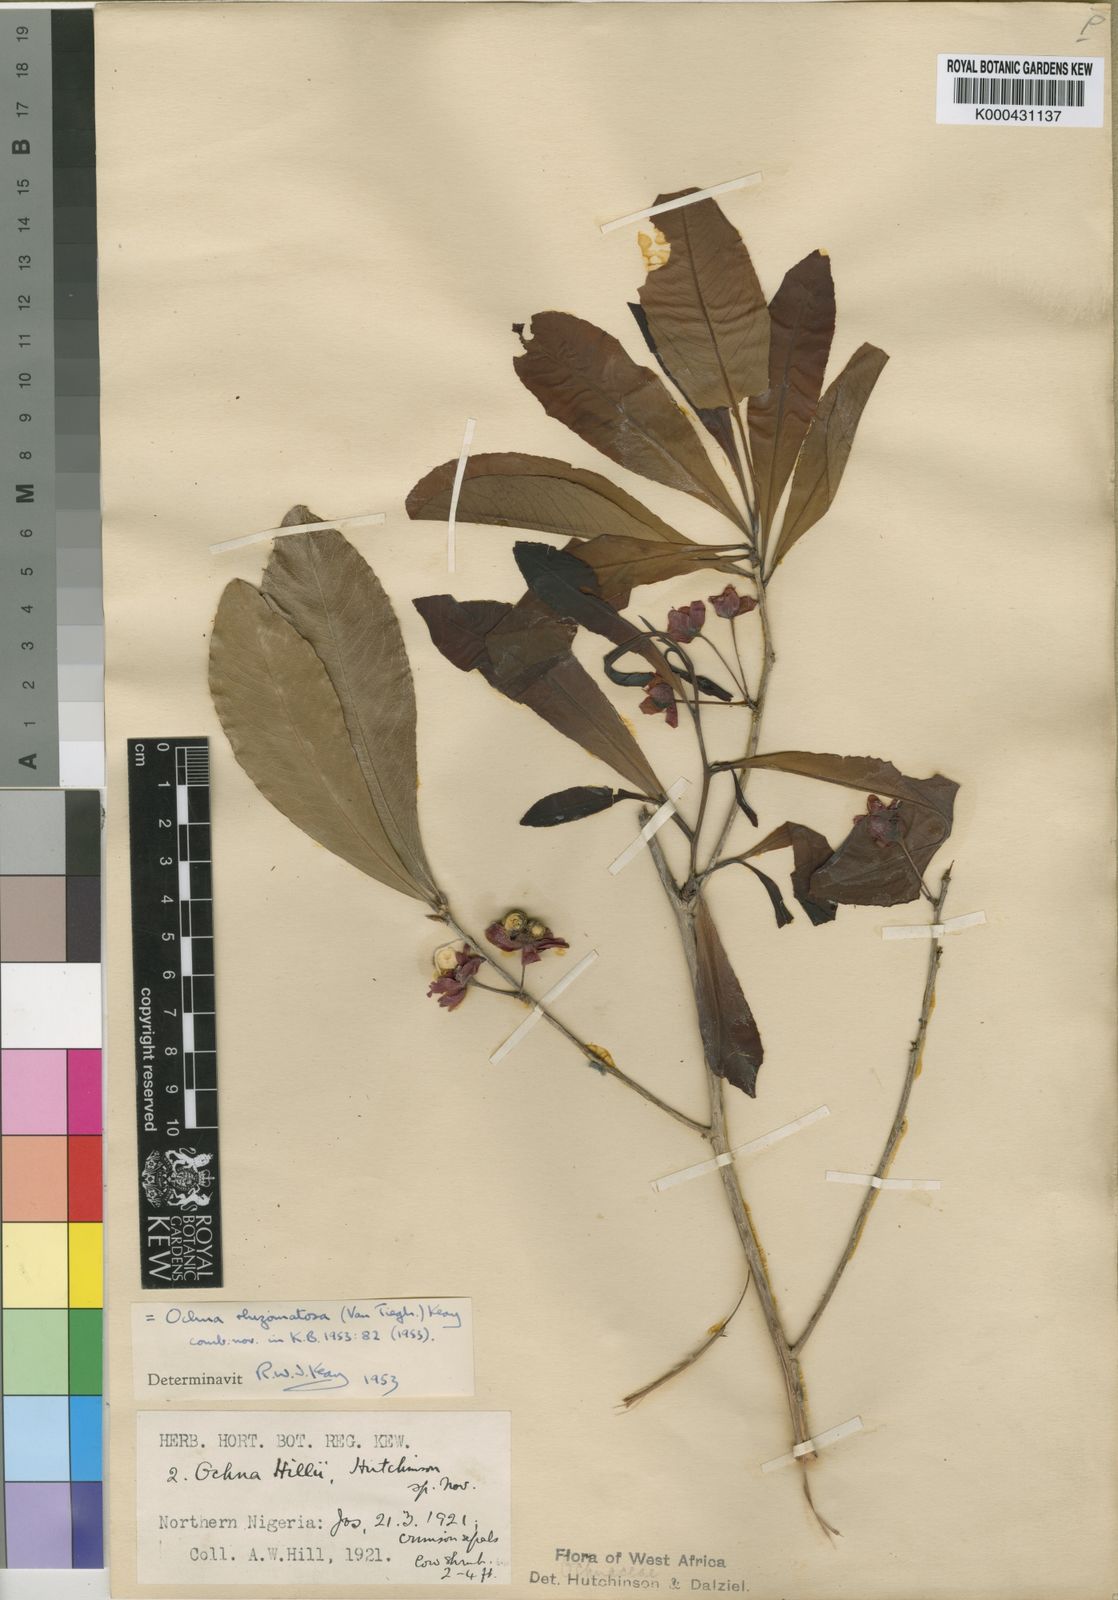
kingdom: Plantae
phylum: Tracheophyta
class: Magnoliopsida
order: Malpighiales
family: Ochnaceae
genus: Ochna
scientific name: Ochna rhizomatosa
